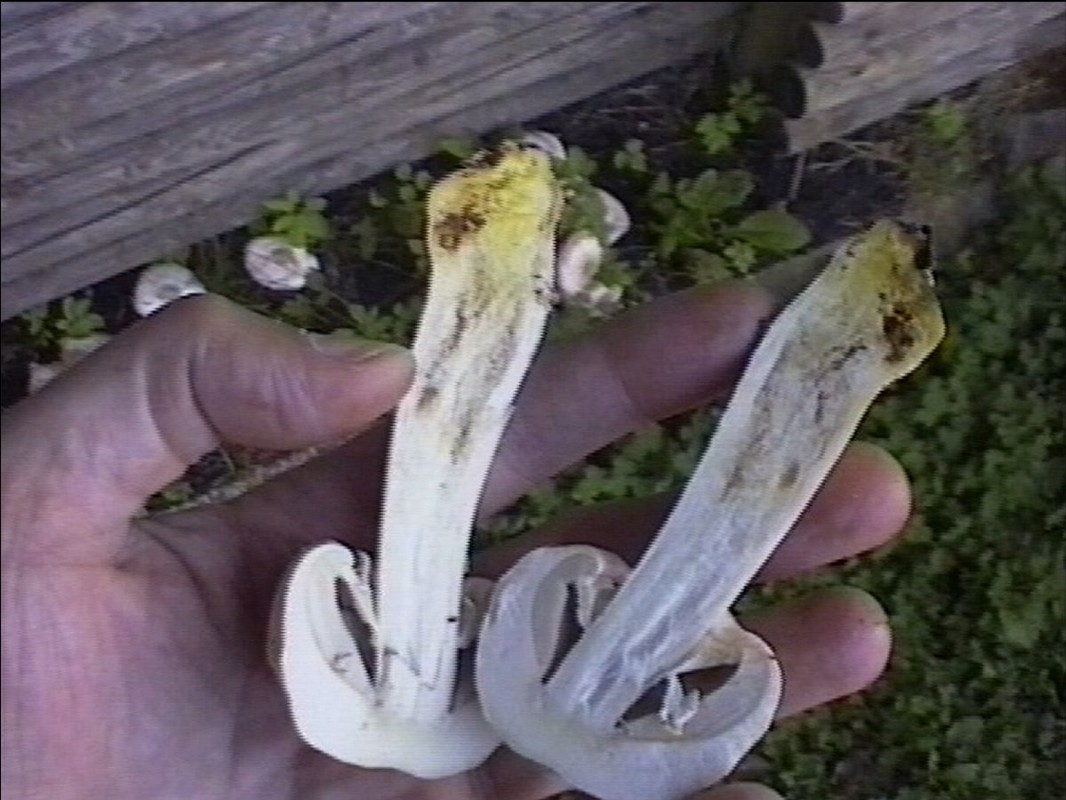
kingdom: Fungi
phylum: Basidiomycota
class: Agaricomycetes
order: Agaricales
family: Agaricaceae
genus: Agaricus
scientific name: Agaricus xanthodermus
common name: karbol-champignon
